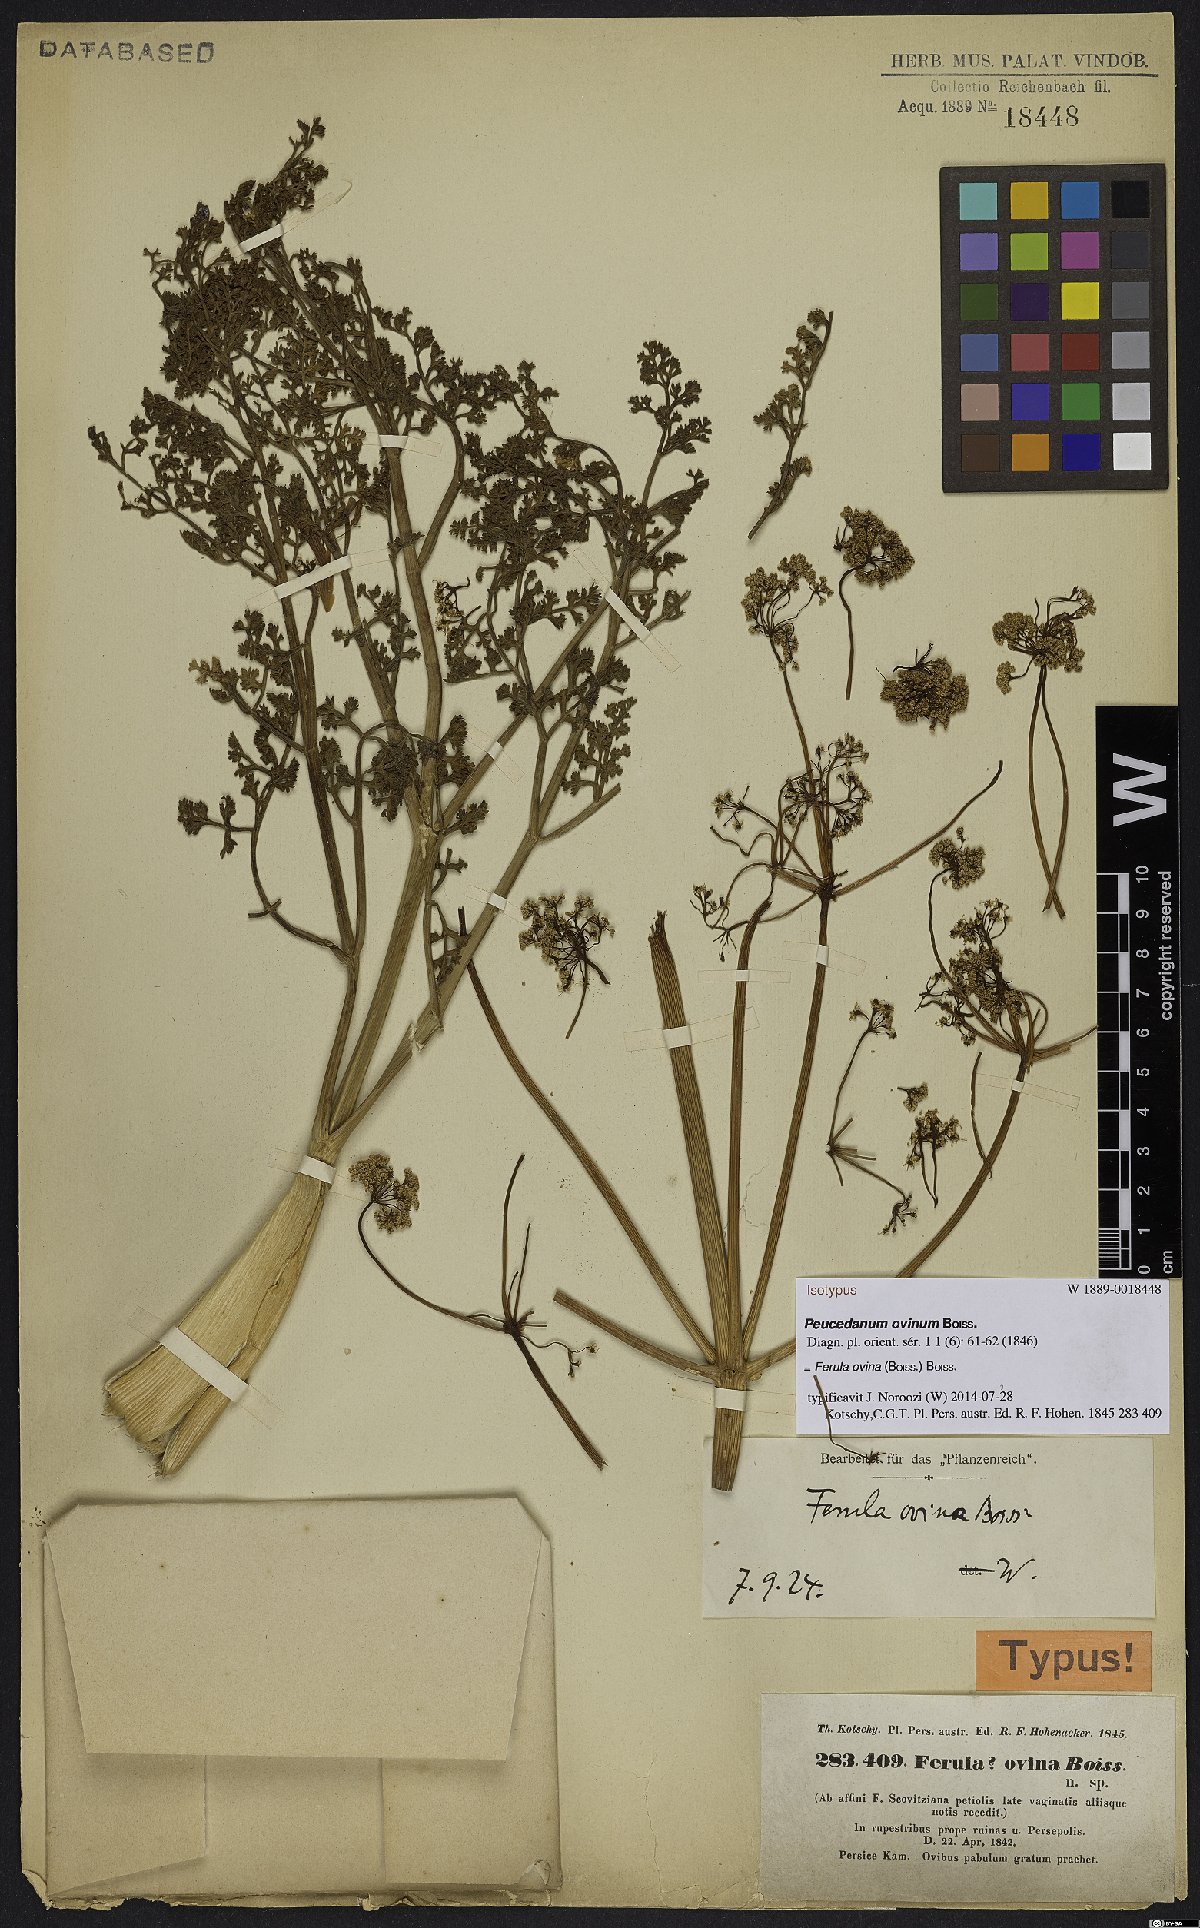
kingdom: Plantae
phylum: Tracheophyta
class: Magnoliopsida
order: Apiales
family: Apiaceae
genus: Ferula
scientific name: Ferula ovina
